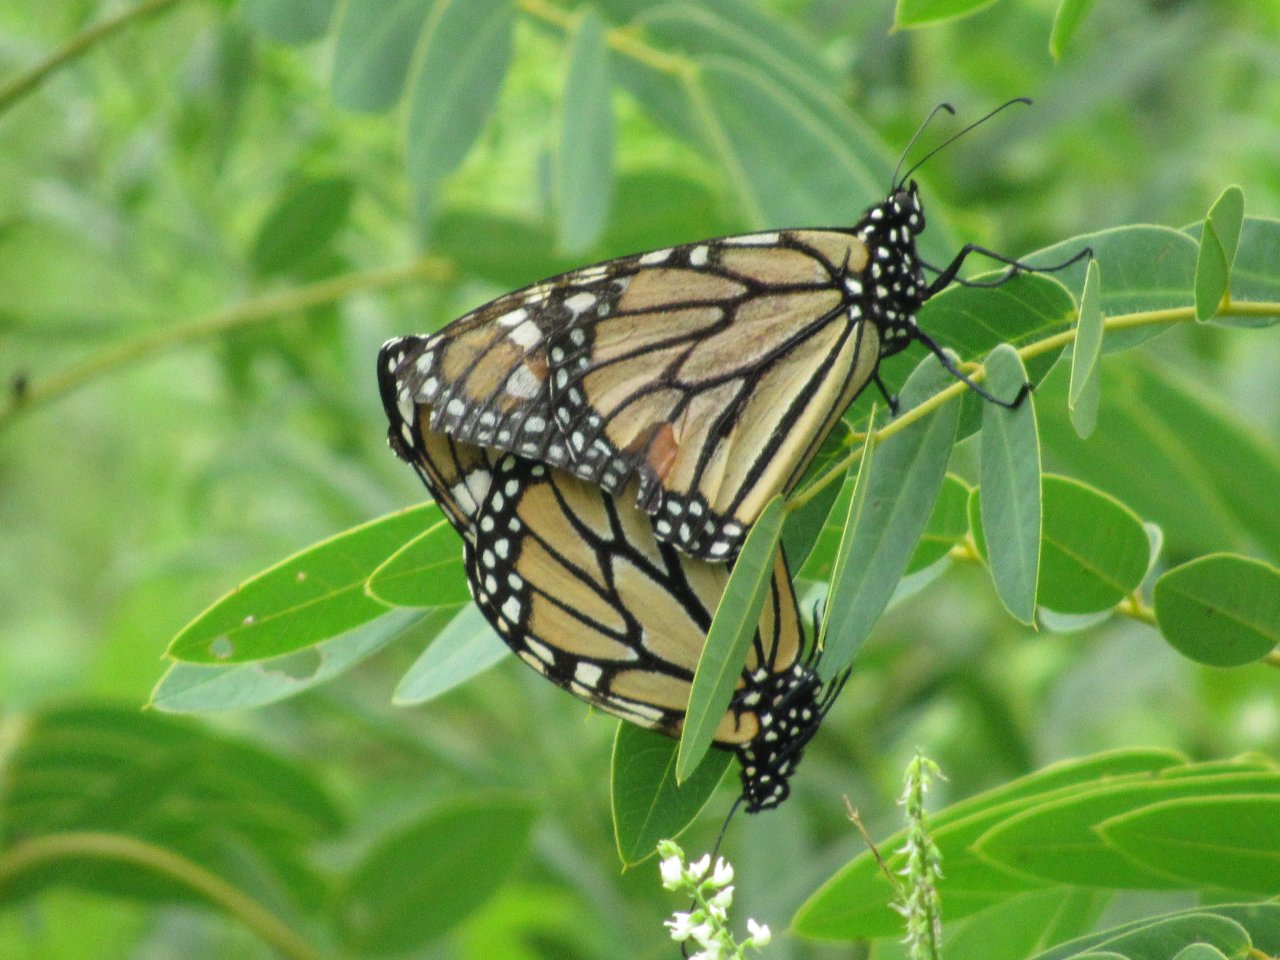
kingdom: Animalia
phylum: Arthropoda
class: Insecta
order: Lepidoptera
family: Nymphalidae
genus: Danaus
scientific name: Danaus plexippus
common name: Monarch
